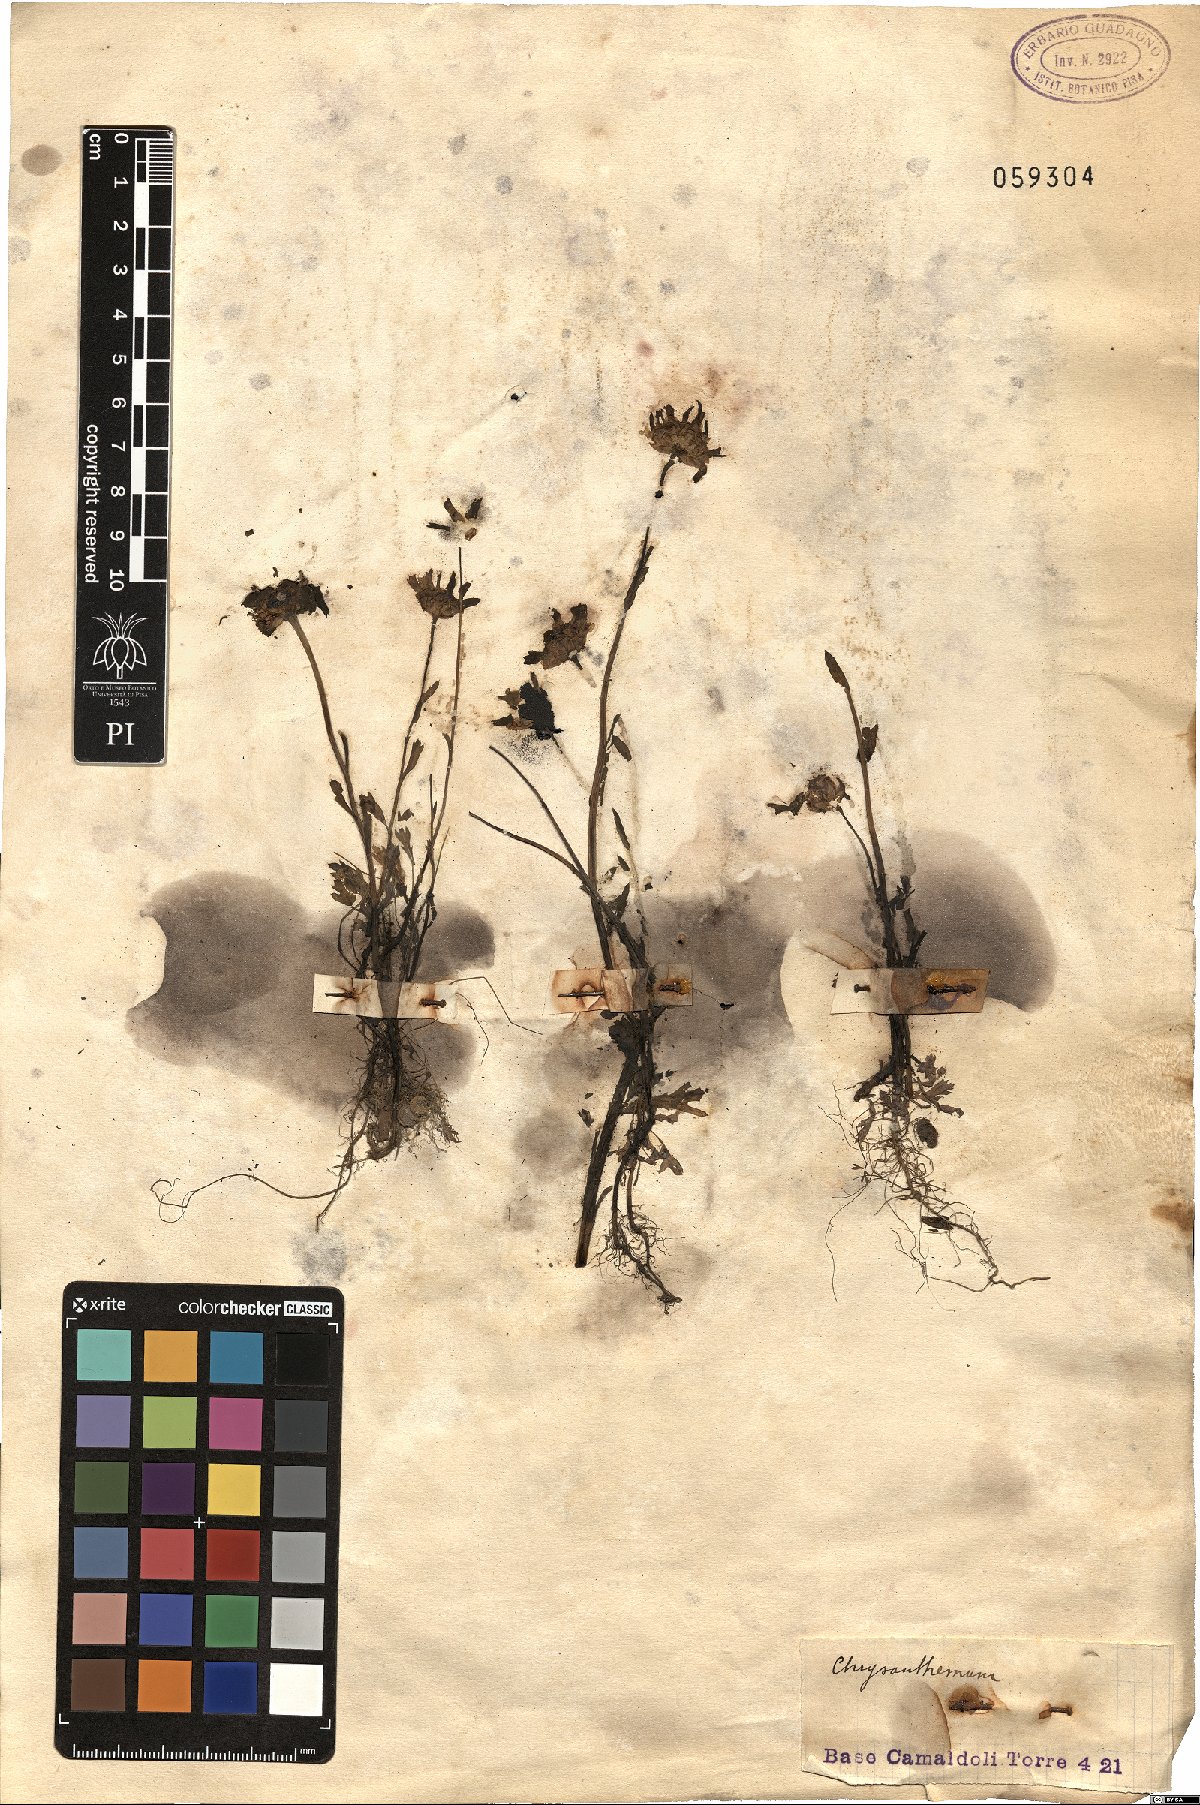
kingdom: Plantae
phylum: Tracheophyta
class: Magnoliopsida
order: Asterales
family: Asteraceae
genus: Chrysanthemum
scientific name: Chrysanthemum
